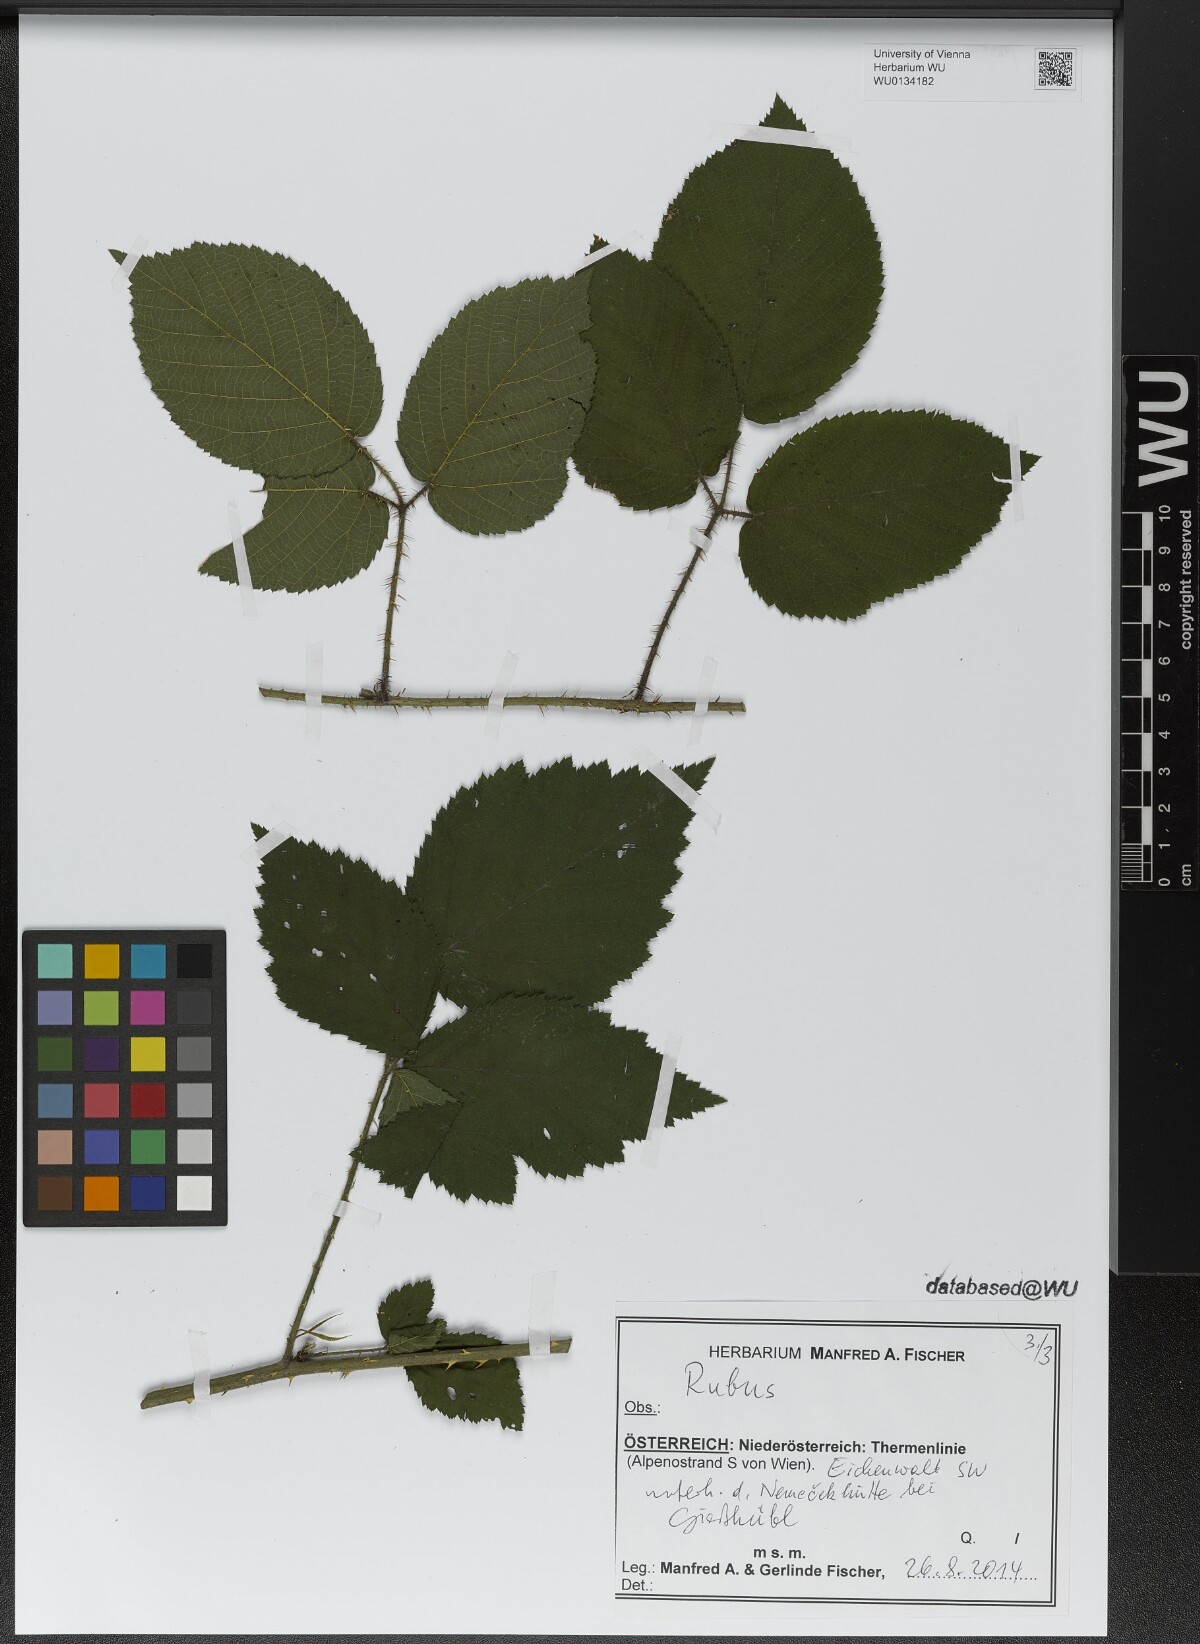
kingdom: Plantae
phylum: Tracheophyta
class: Magnoliopsida
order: Rosales
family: Rosaceae
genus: Rubus
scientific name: Rubus
